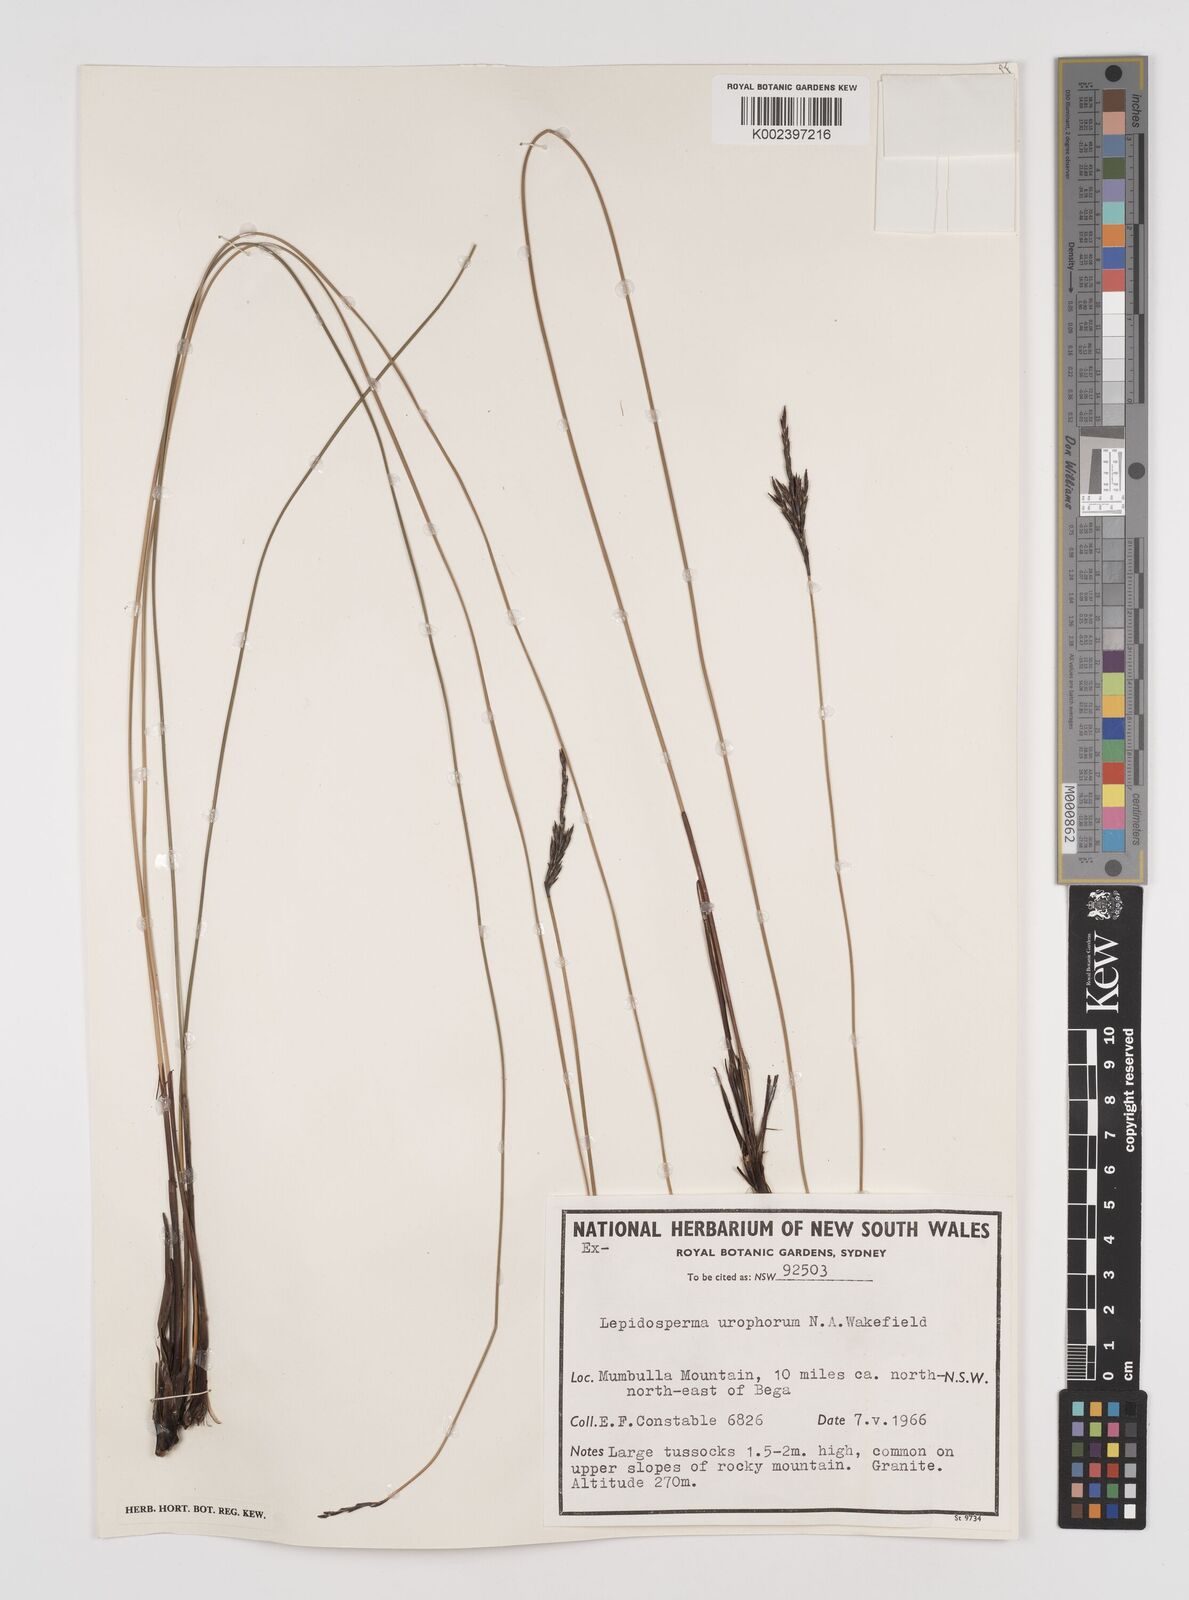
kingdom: Plantae
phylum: Tracheophyta
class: Liliopsida
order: Poales
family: Cyperaceae
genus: Lepidosperma
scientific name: Lepidosperma urophorum
